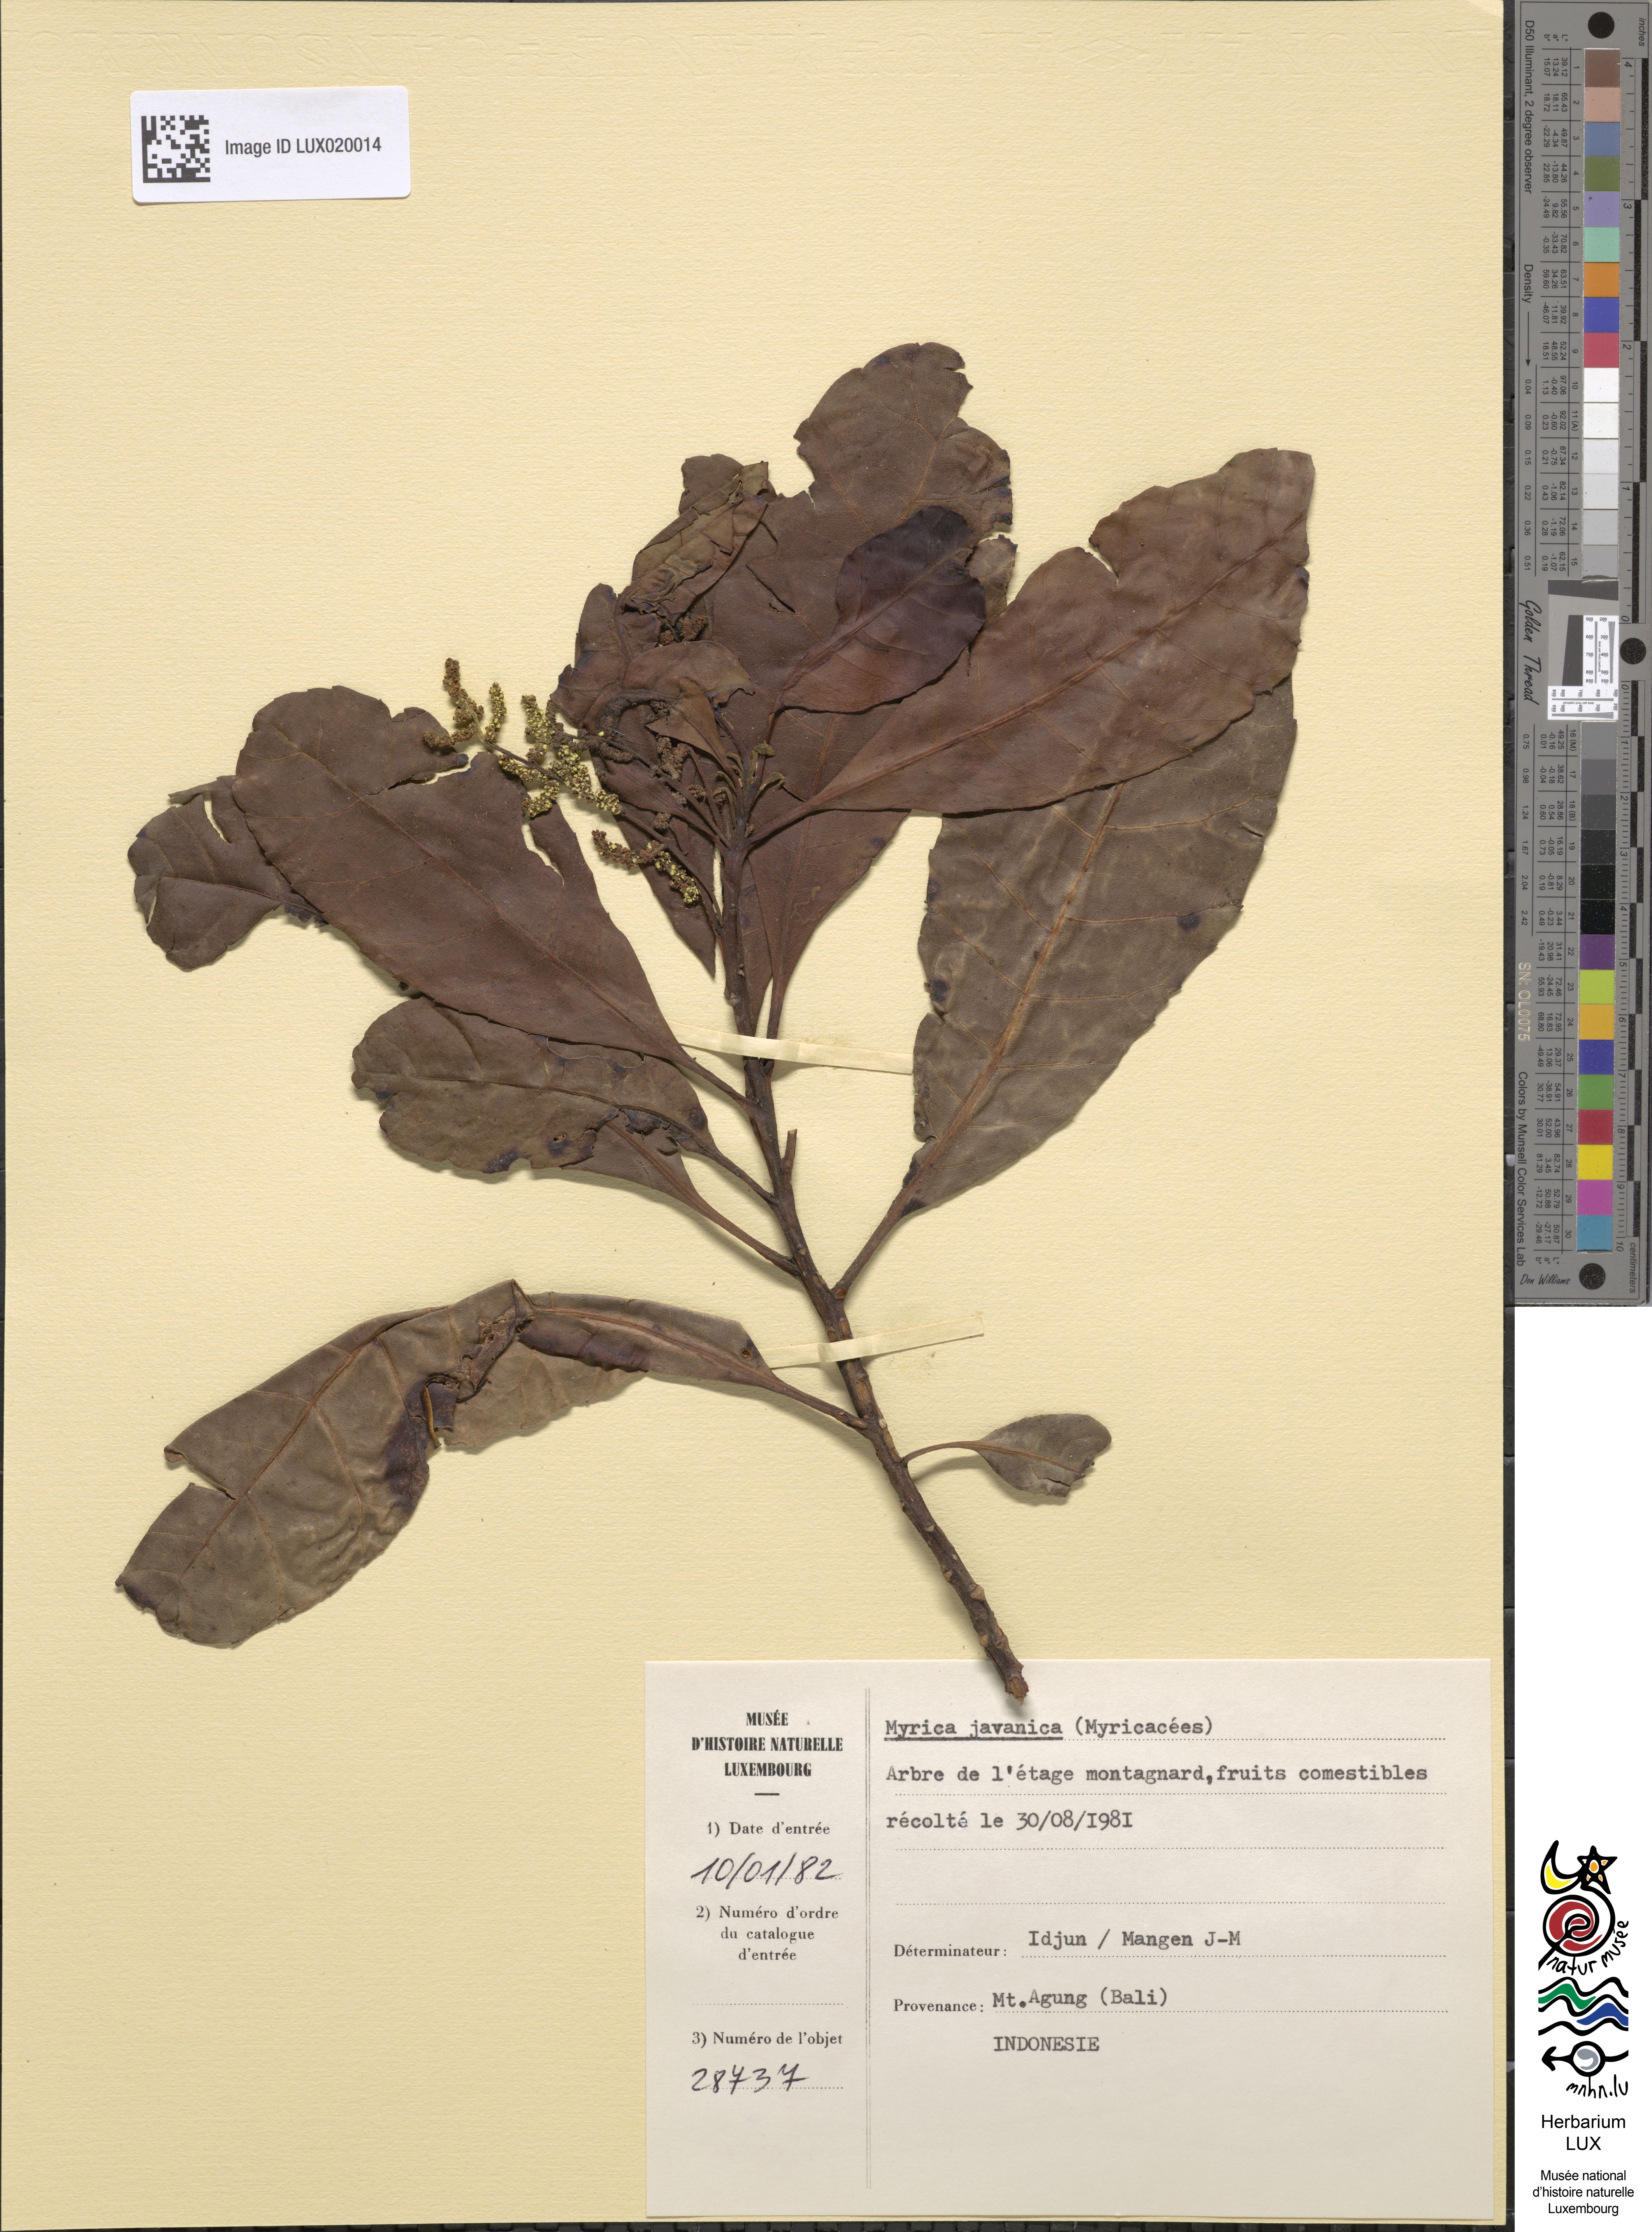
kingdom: Plantae
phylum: Tracheophyta
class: Magnoliopsida
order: Fagales
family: Myricaceae
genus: Morella
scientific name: Morella javanica
